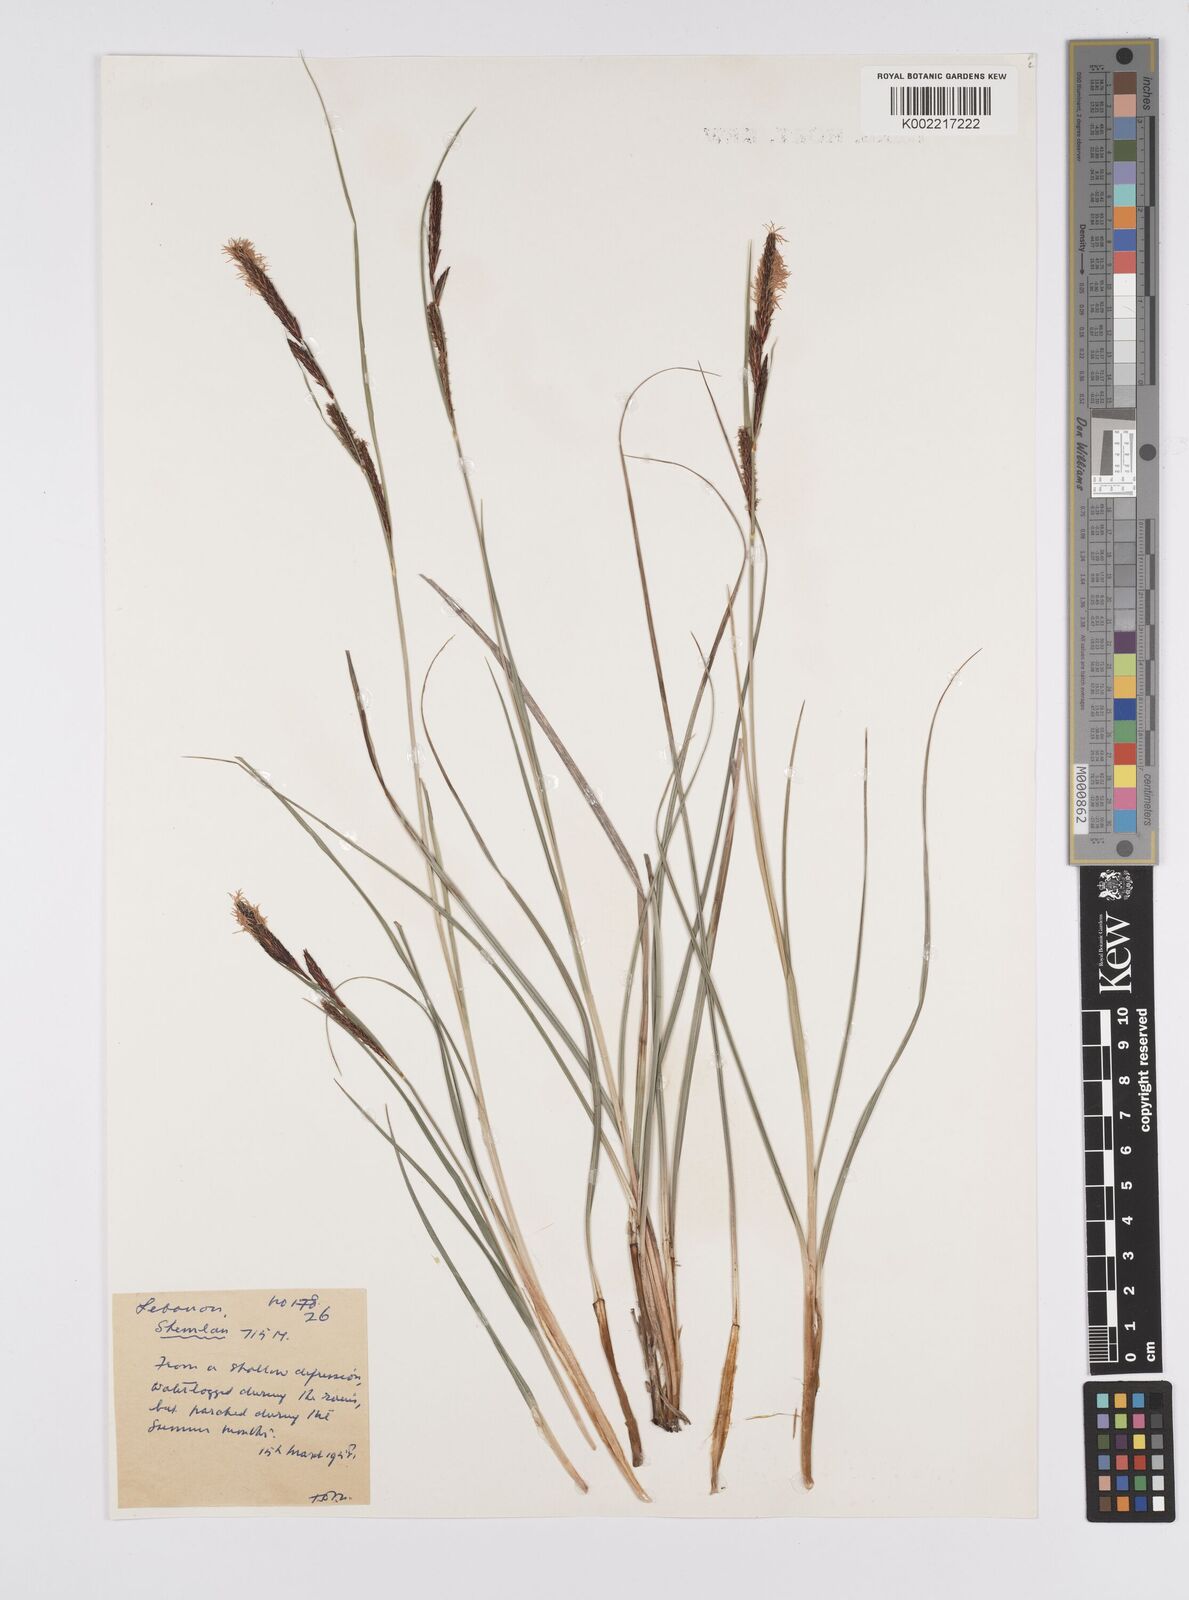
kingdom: Plantae
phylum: Tracheophyta
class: Liliopsida
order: Poales
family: Cyperaceae
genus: Carex
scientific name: Carex
